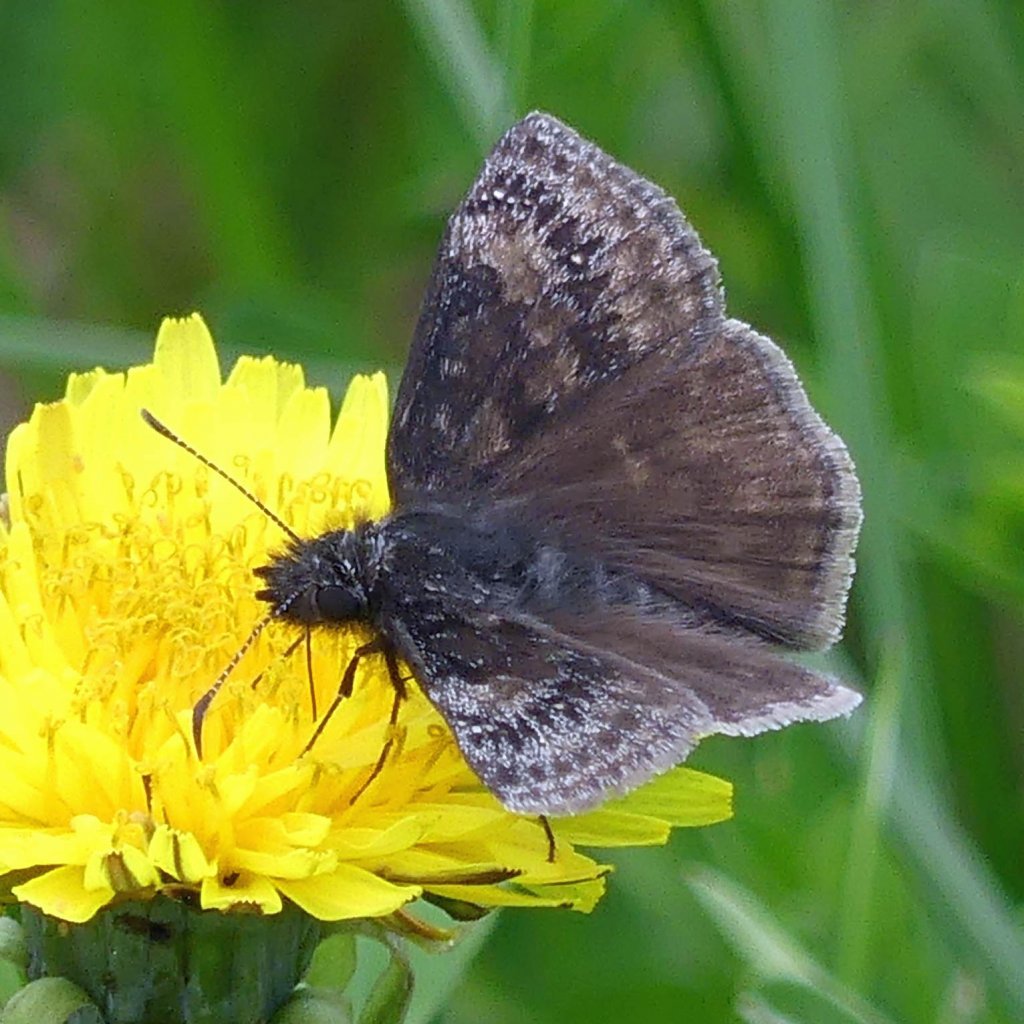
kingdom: Animalia
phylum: Arthropoda
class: Insecta
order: Lepidoptera
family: Hesperiidae
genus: Gesta
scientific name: Gesta
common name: Wild Indigo Duskywing
